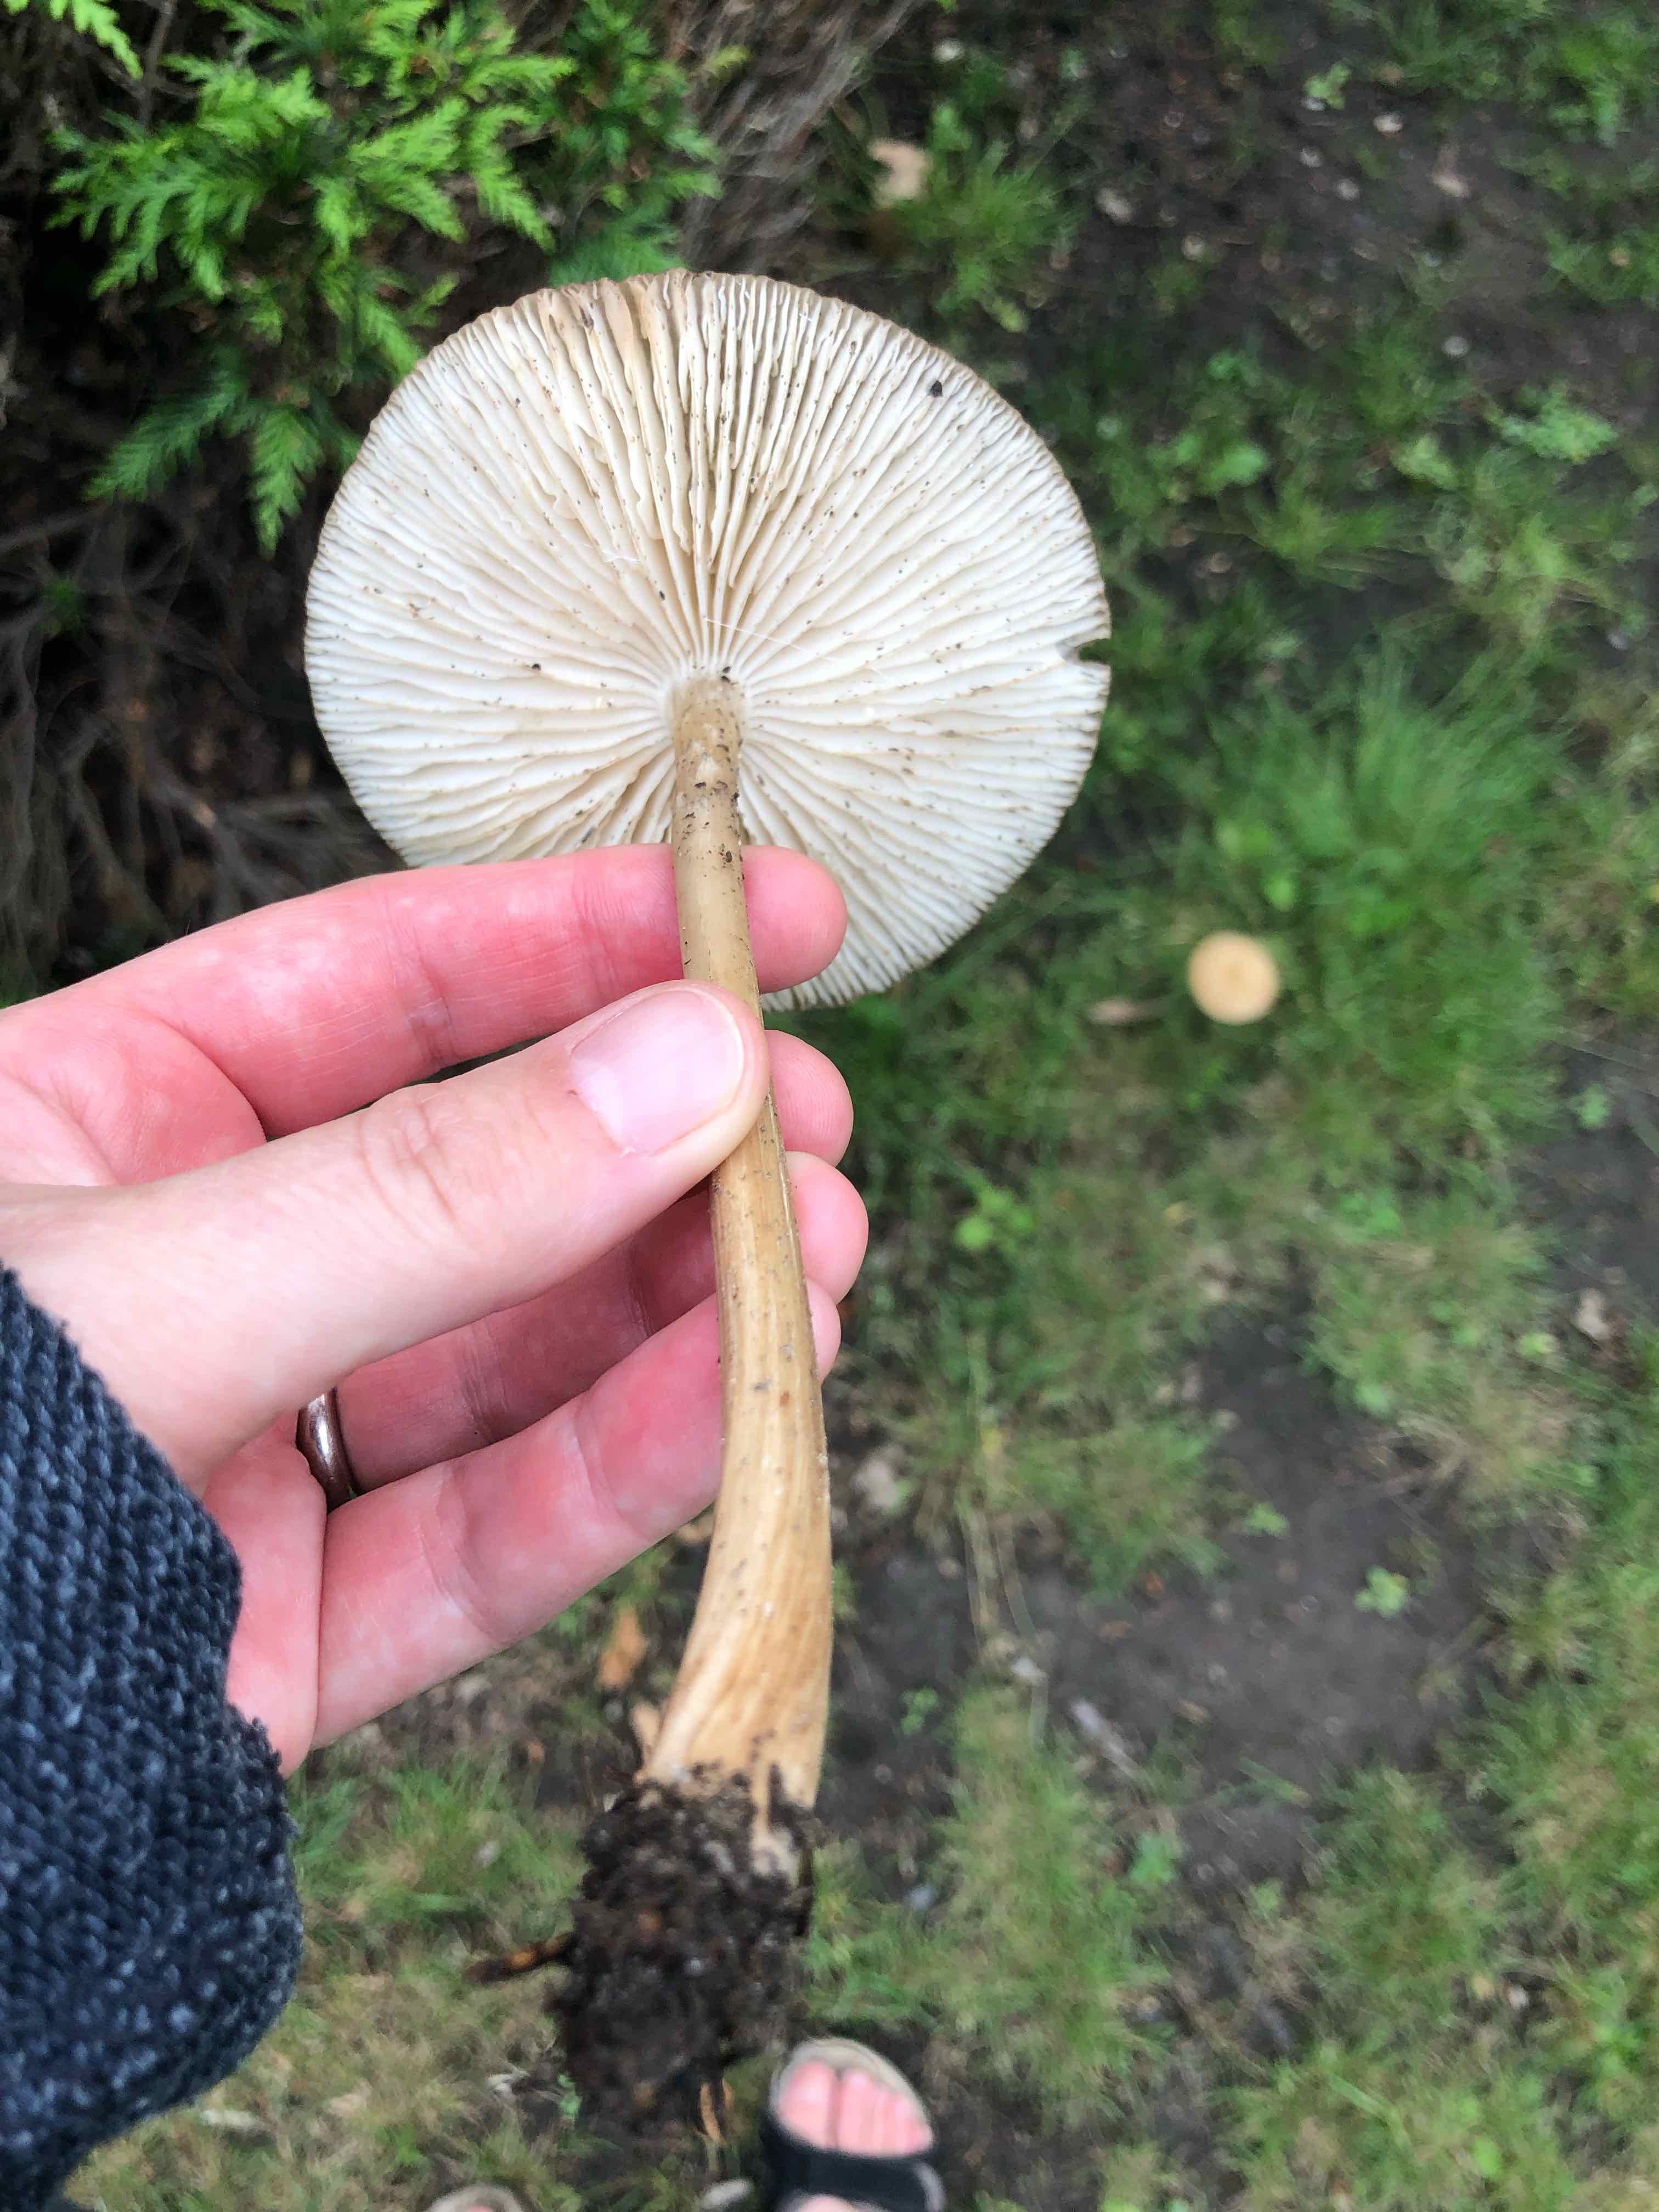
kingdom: Fungi
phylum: Basidiomycota
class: Agaricomycetes
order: Agaricales
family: Physalacriaceae
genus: Hymenopellis
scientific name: Hymenopellis radicata
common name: almindelig pælerodshat
